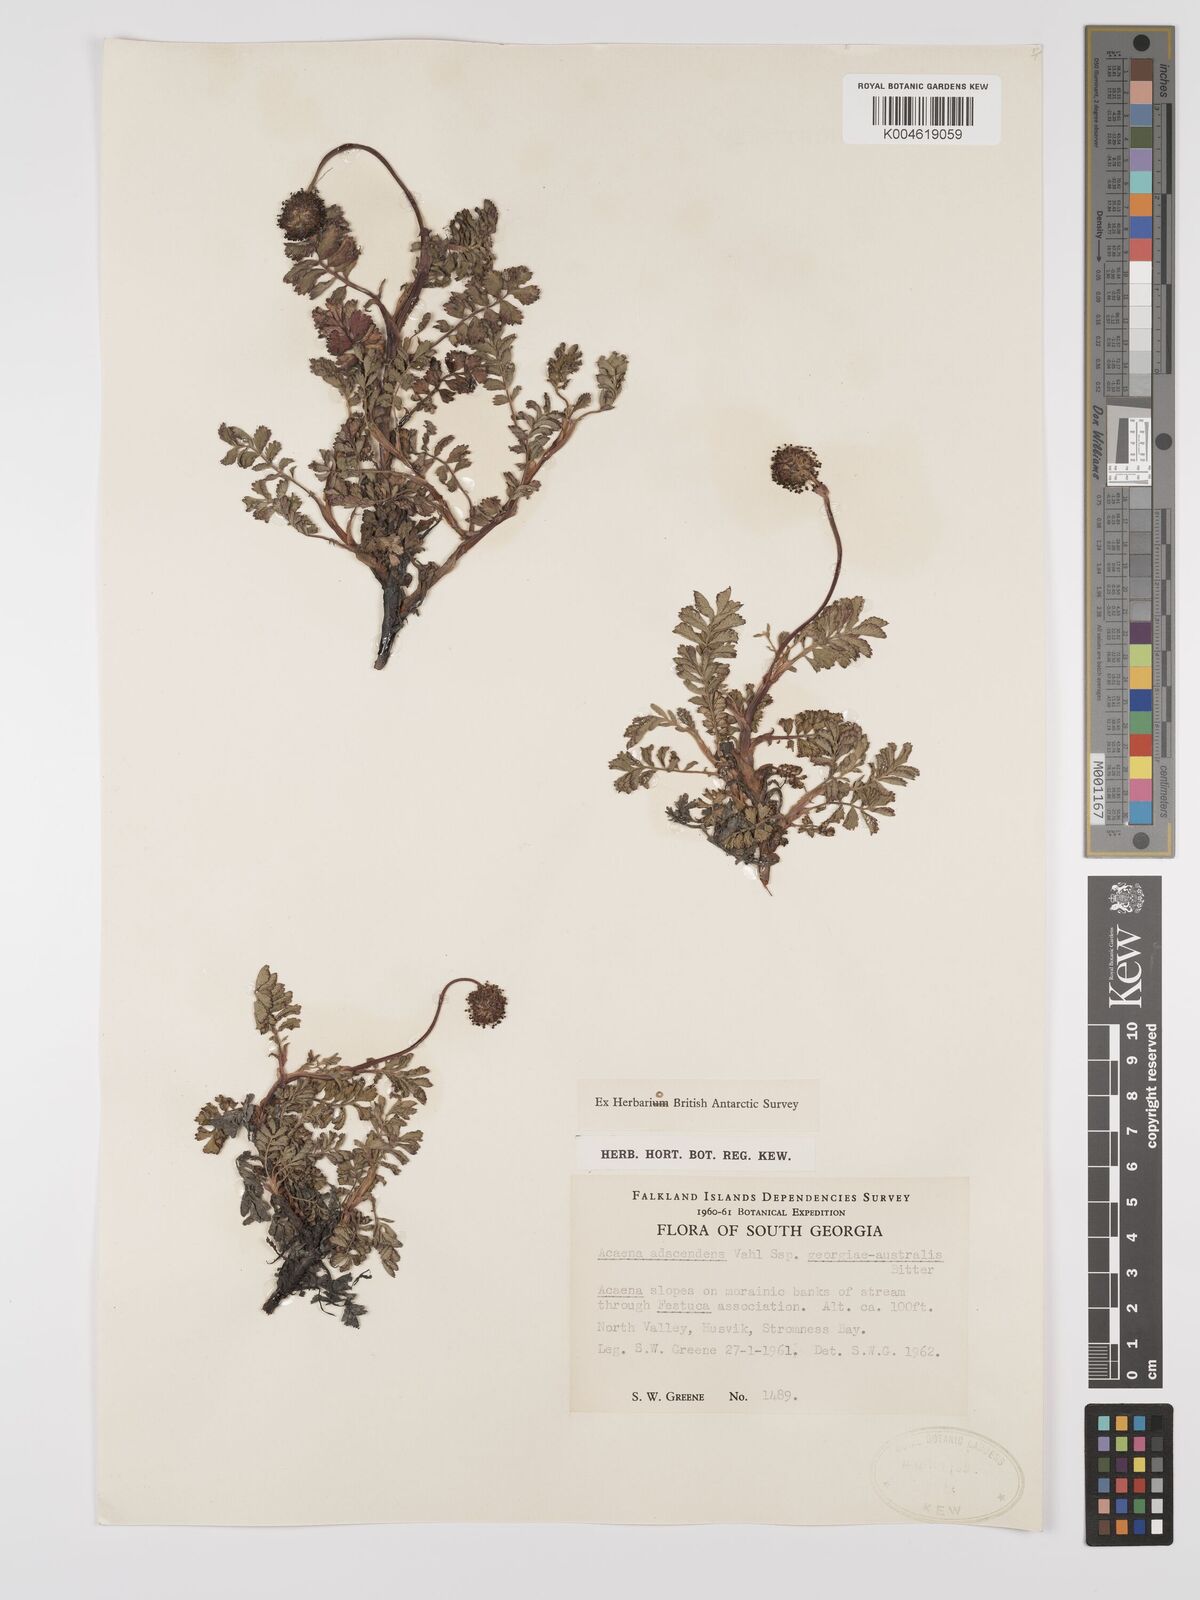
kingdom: Plantae
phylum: Tracheophyta
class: Magnoliopsida
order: Rosales
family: Rosaceae
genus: Acaena
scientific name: Acaena magellanica
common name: New zealand burr
